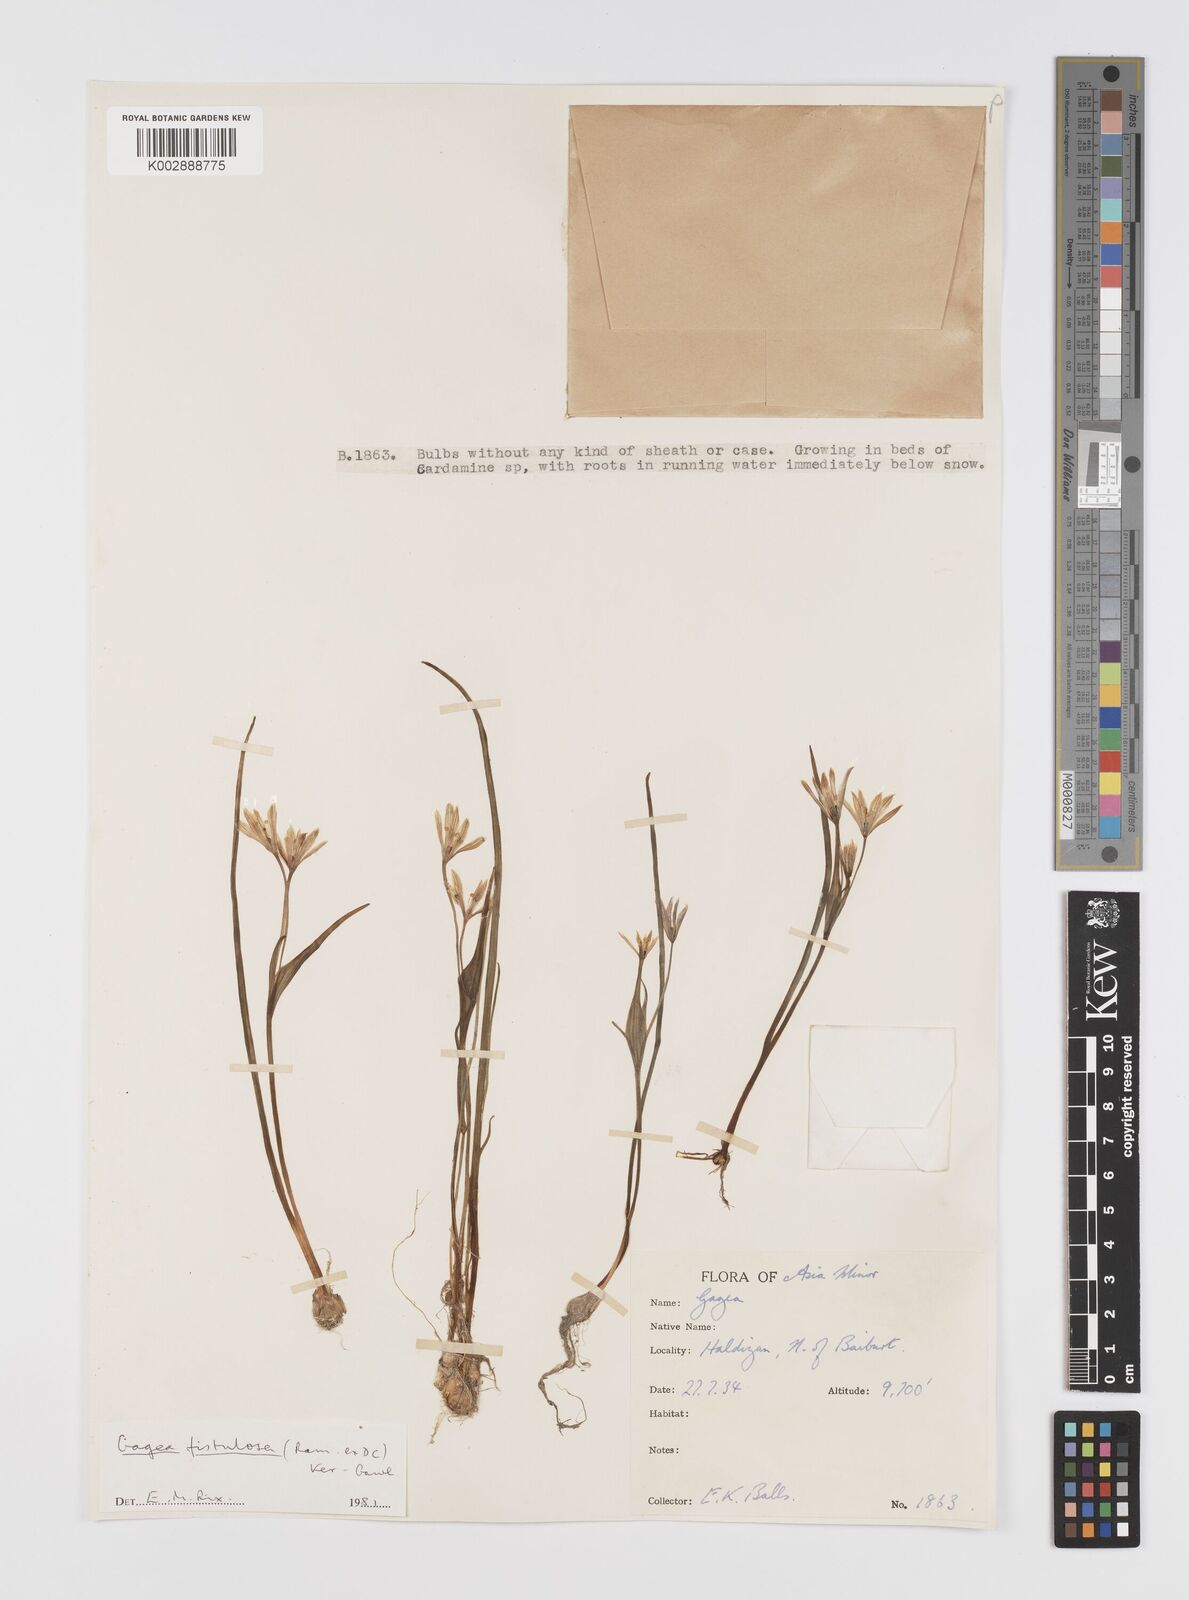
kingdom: Plantae
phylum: Tracheophyta
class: Liliopsida
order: Liliales
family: Liliaceae
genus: Gagea
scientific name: Gagea bohemica
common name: Early star-of-bethlehem
